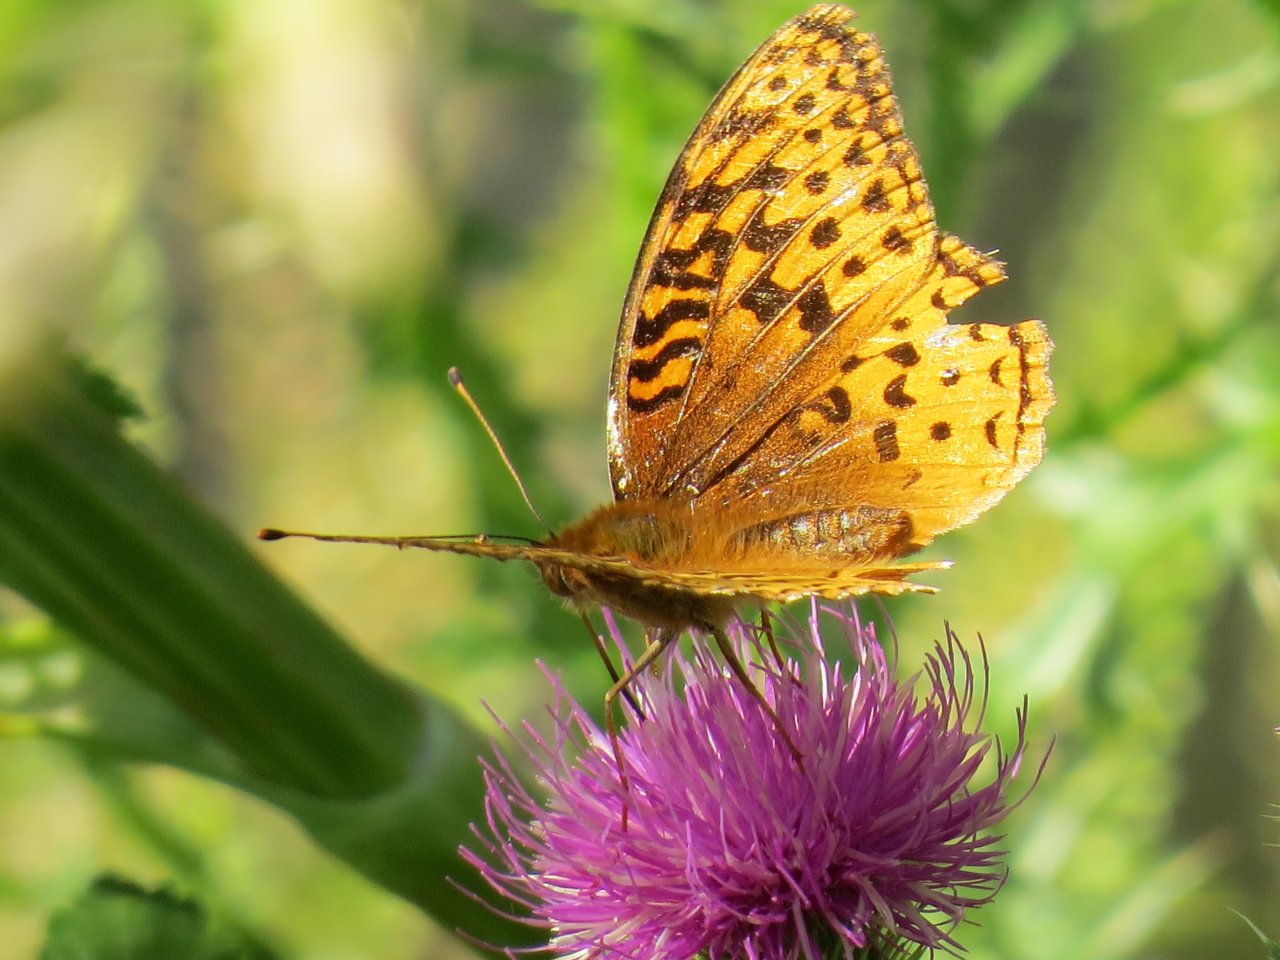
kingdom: Animalia
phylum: Arthropoda
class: Insecta
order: Lepidoptera
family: Nymphalidae
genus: Speyeria
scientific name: Speyeria cybele
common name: Great Spangled Fritillary
